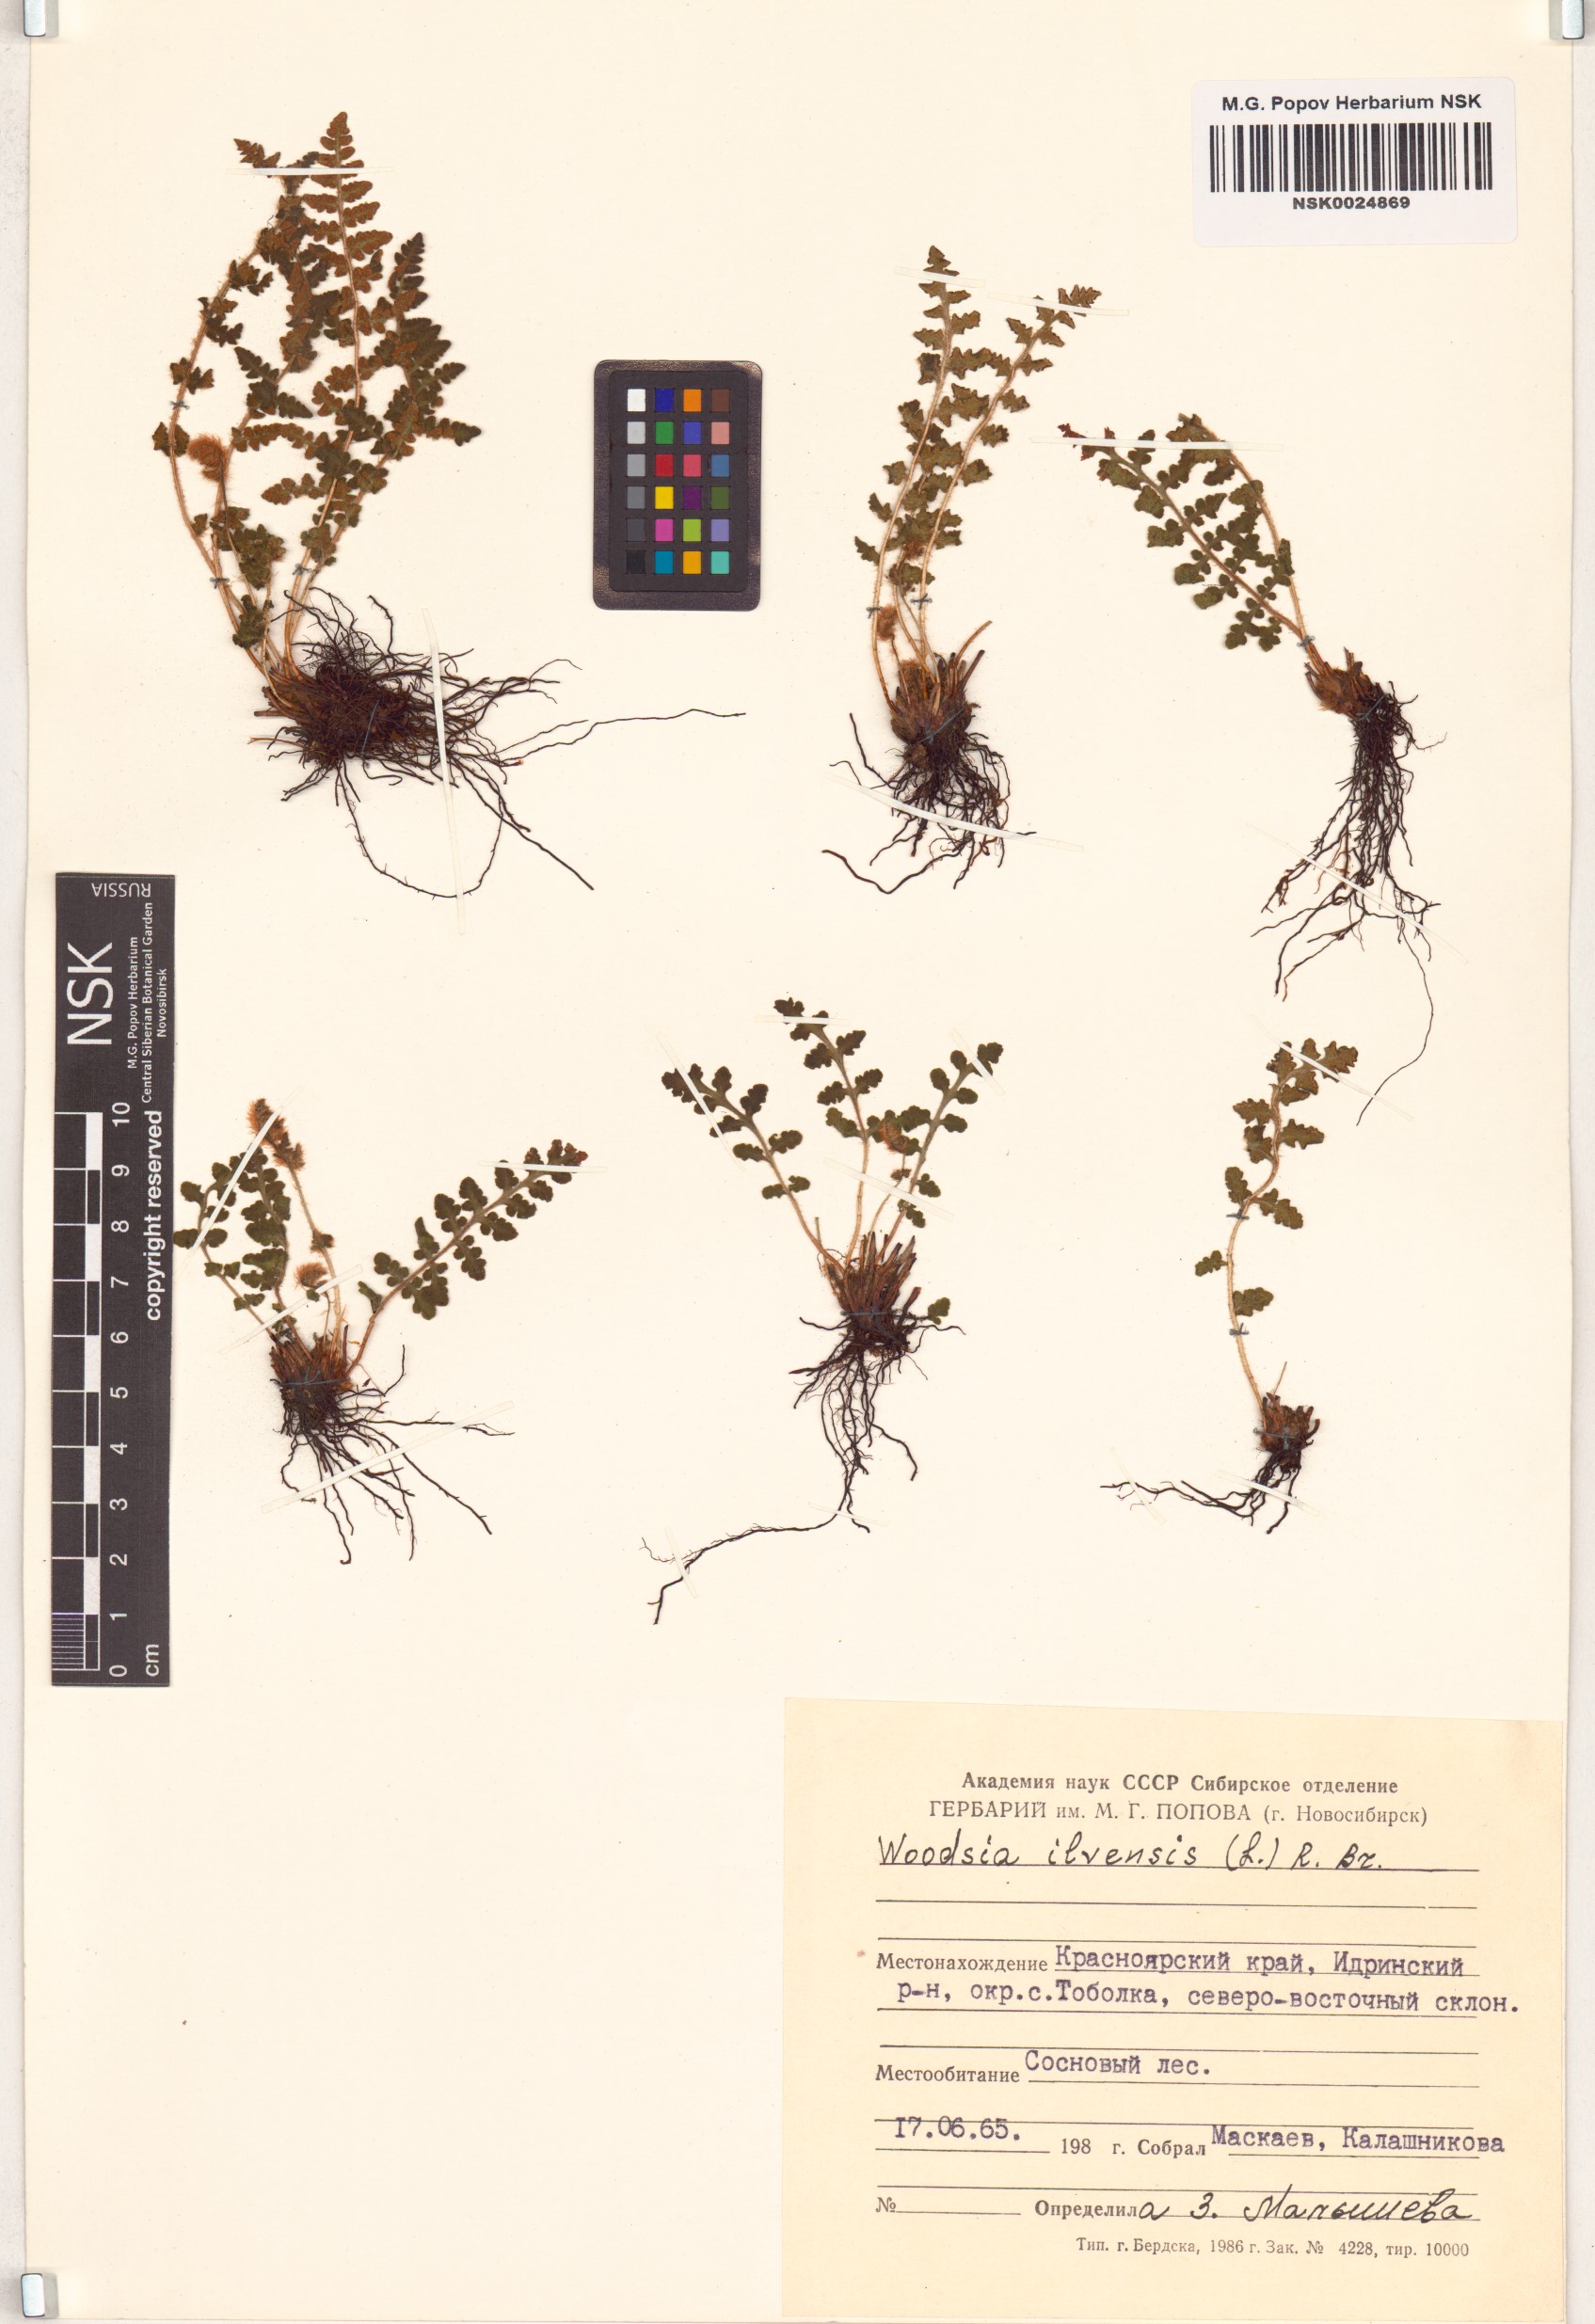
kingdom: Plantae
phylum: Tracheophyta
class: Polypodiopsida
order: Polypodiales
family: Woodsiaceae
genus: Woodsia
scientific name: Woodsia ilvensis
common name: Fragrant woodsia
